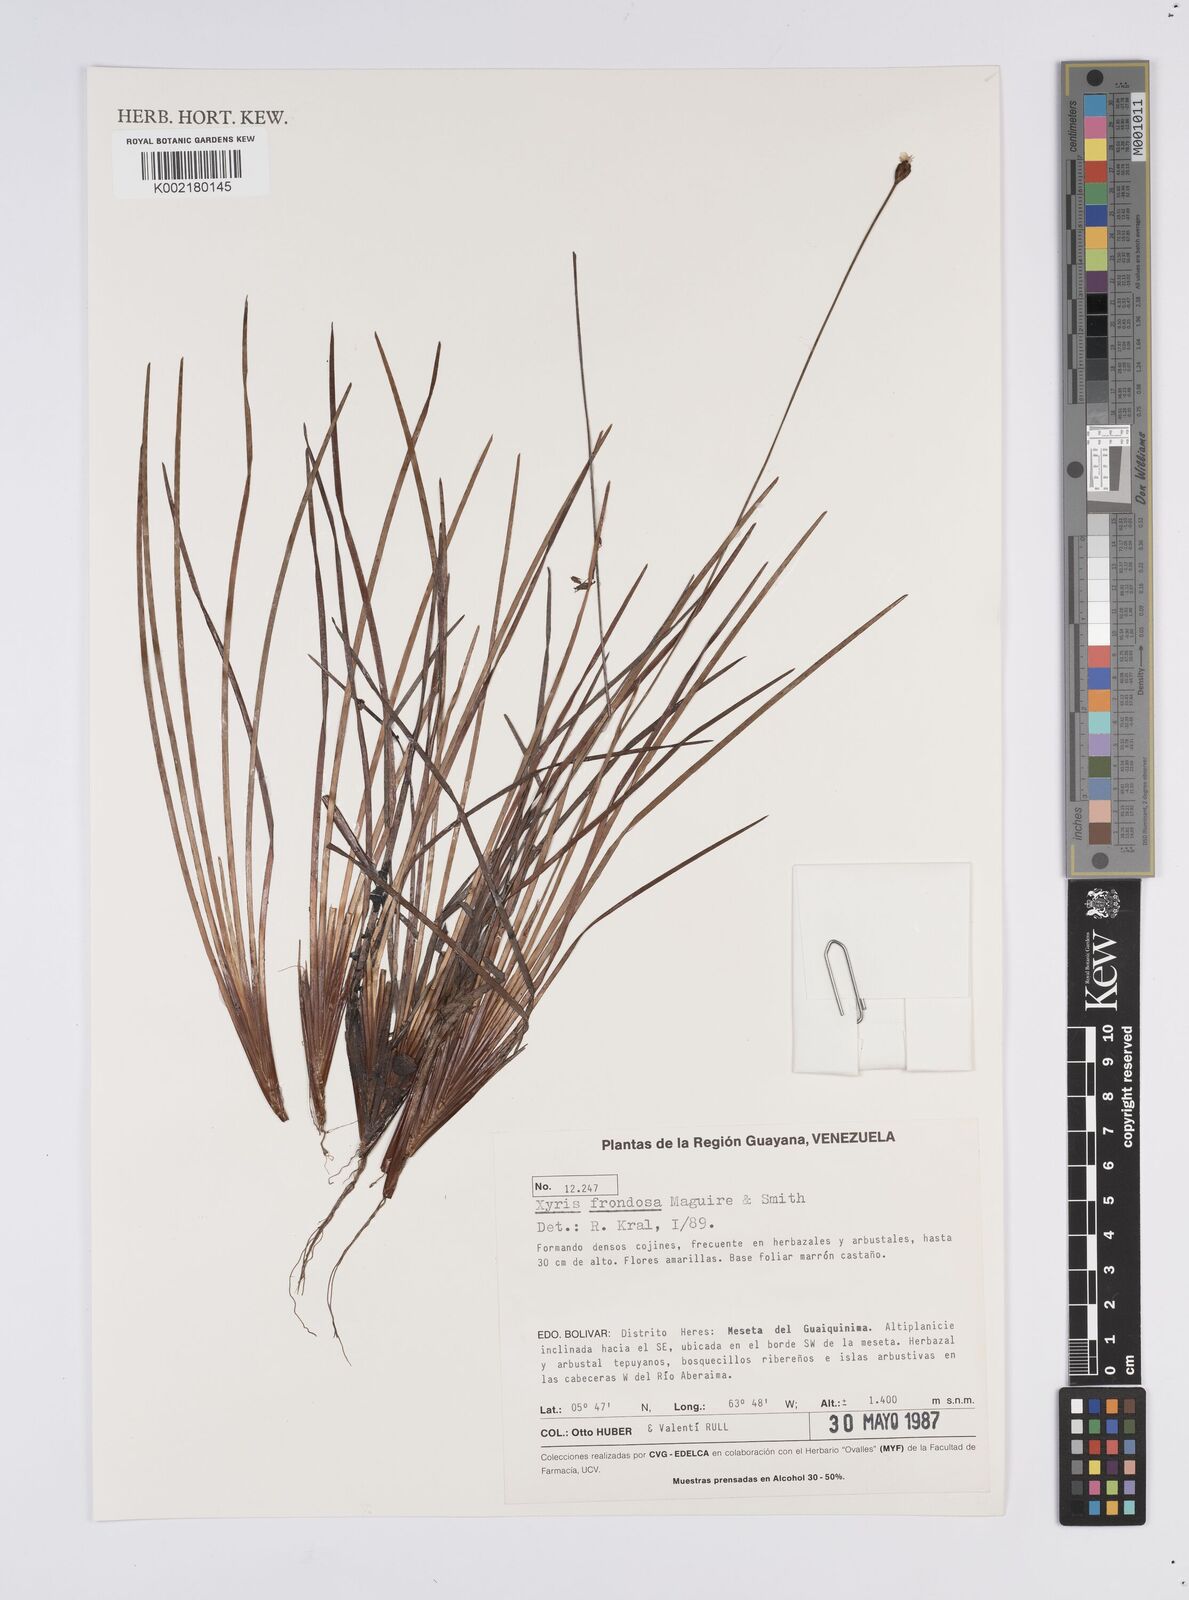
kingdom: Plantae
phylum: Tracheophyta
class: Liliopsida
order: Poales
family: Xyridaceae
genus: Xyris
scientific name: Xyris frondosa
